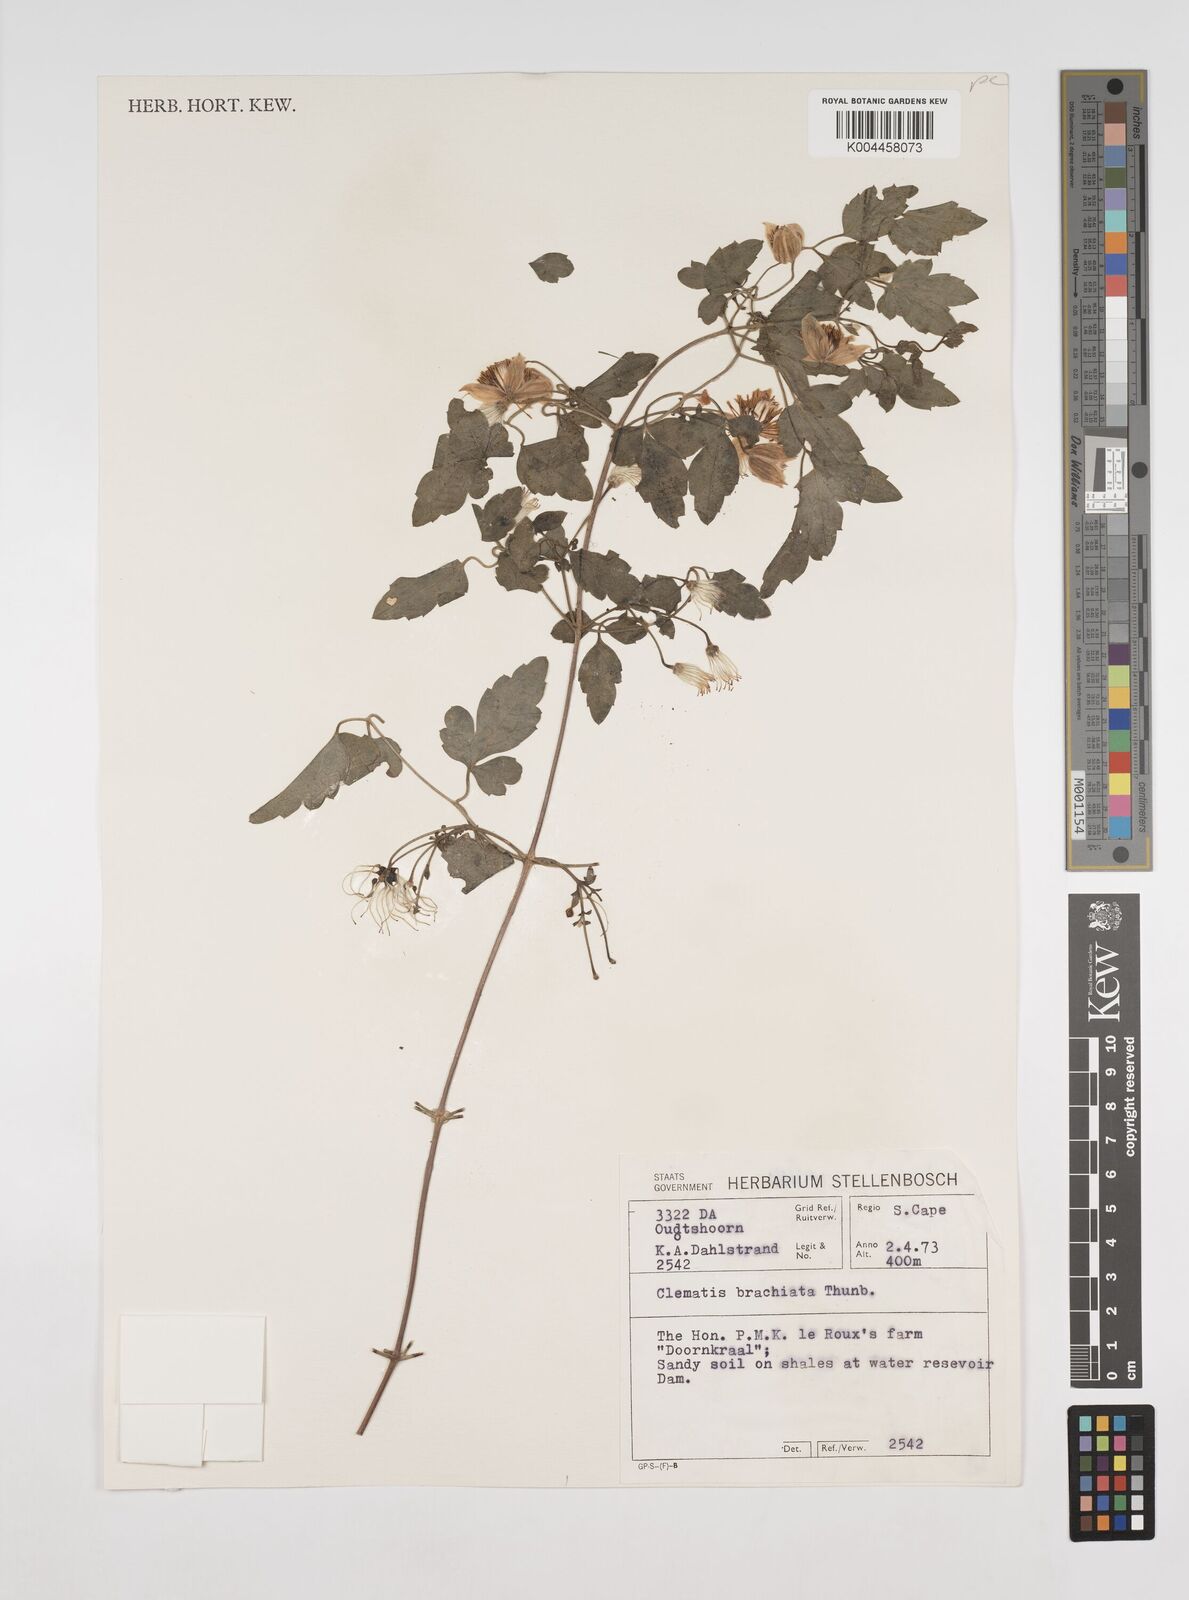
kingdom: Plantae
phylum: Tracheophyta
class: Magnoliopsida
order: Ranunculales
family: Ranunculaceae
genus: Clematis
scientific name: Clematis brachiata
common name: Traveler's-joy
